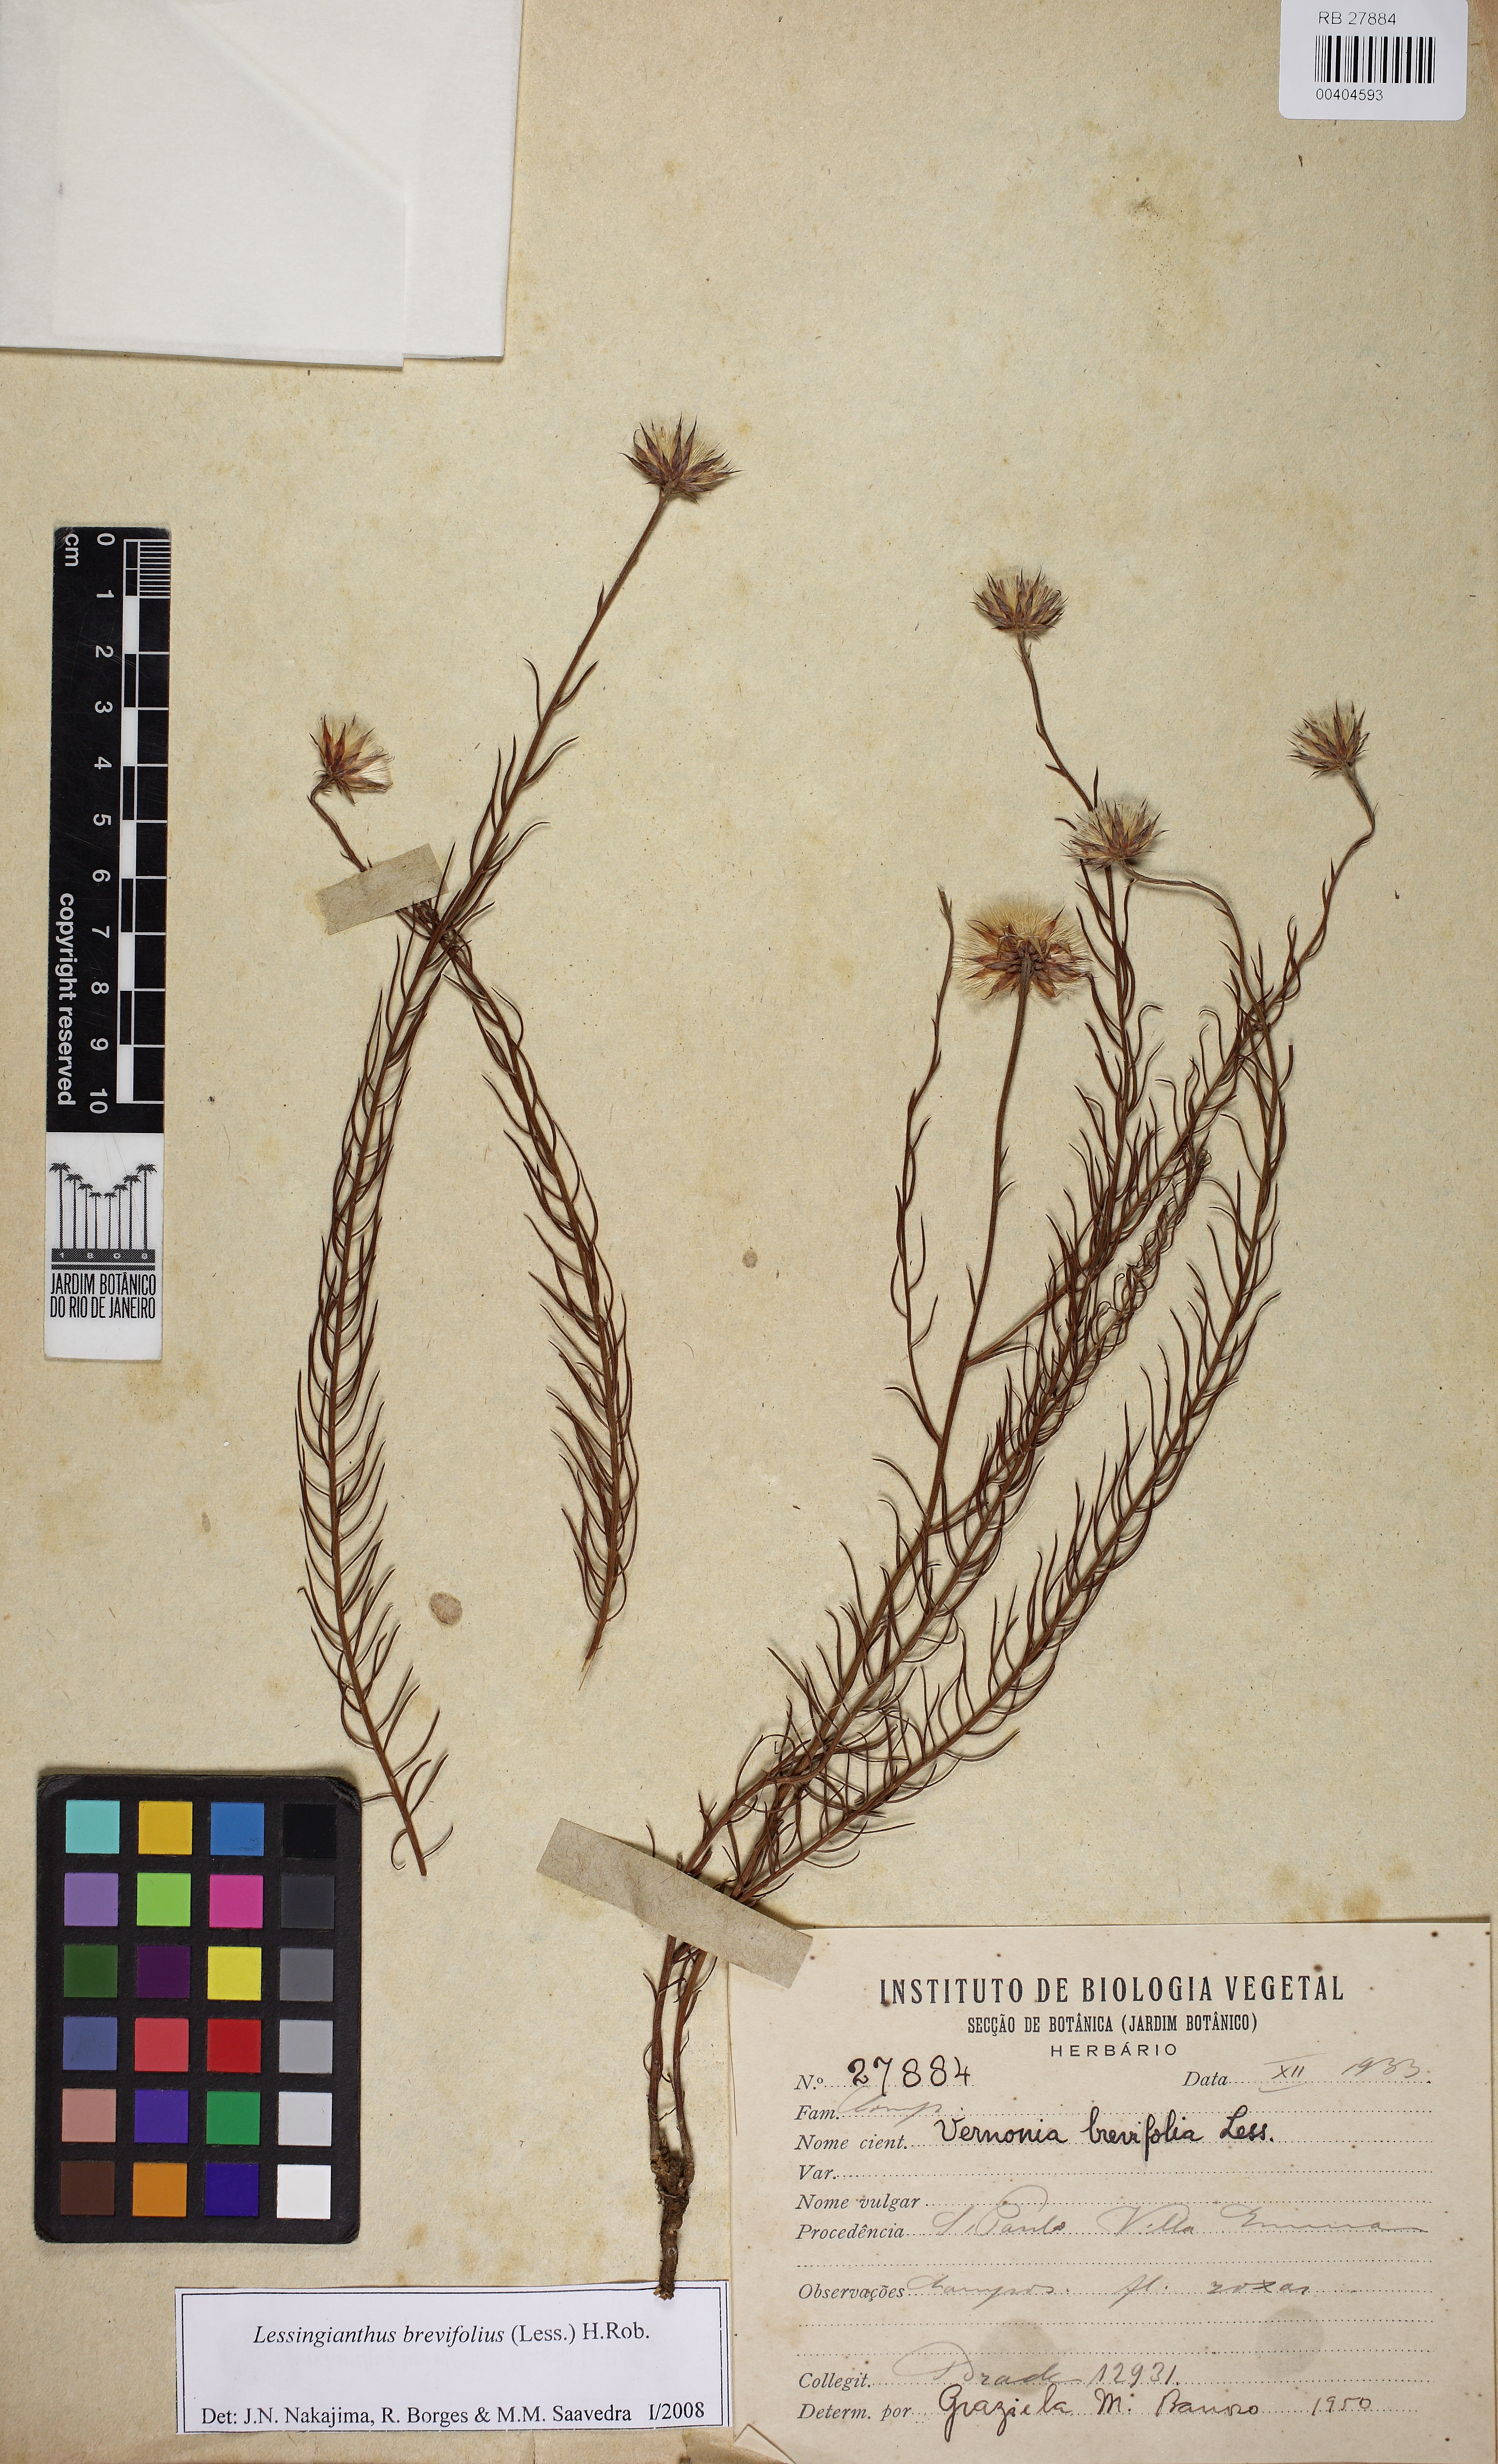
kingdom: Plantae
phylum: Tracheophyta
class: Magnoliopsida
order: Asterales
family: Asteraceae
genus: Lessingianthus
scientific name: Lessingianthus brevifolius
